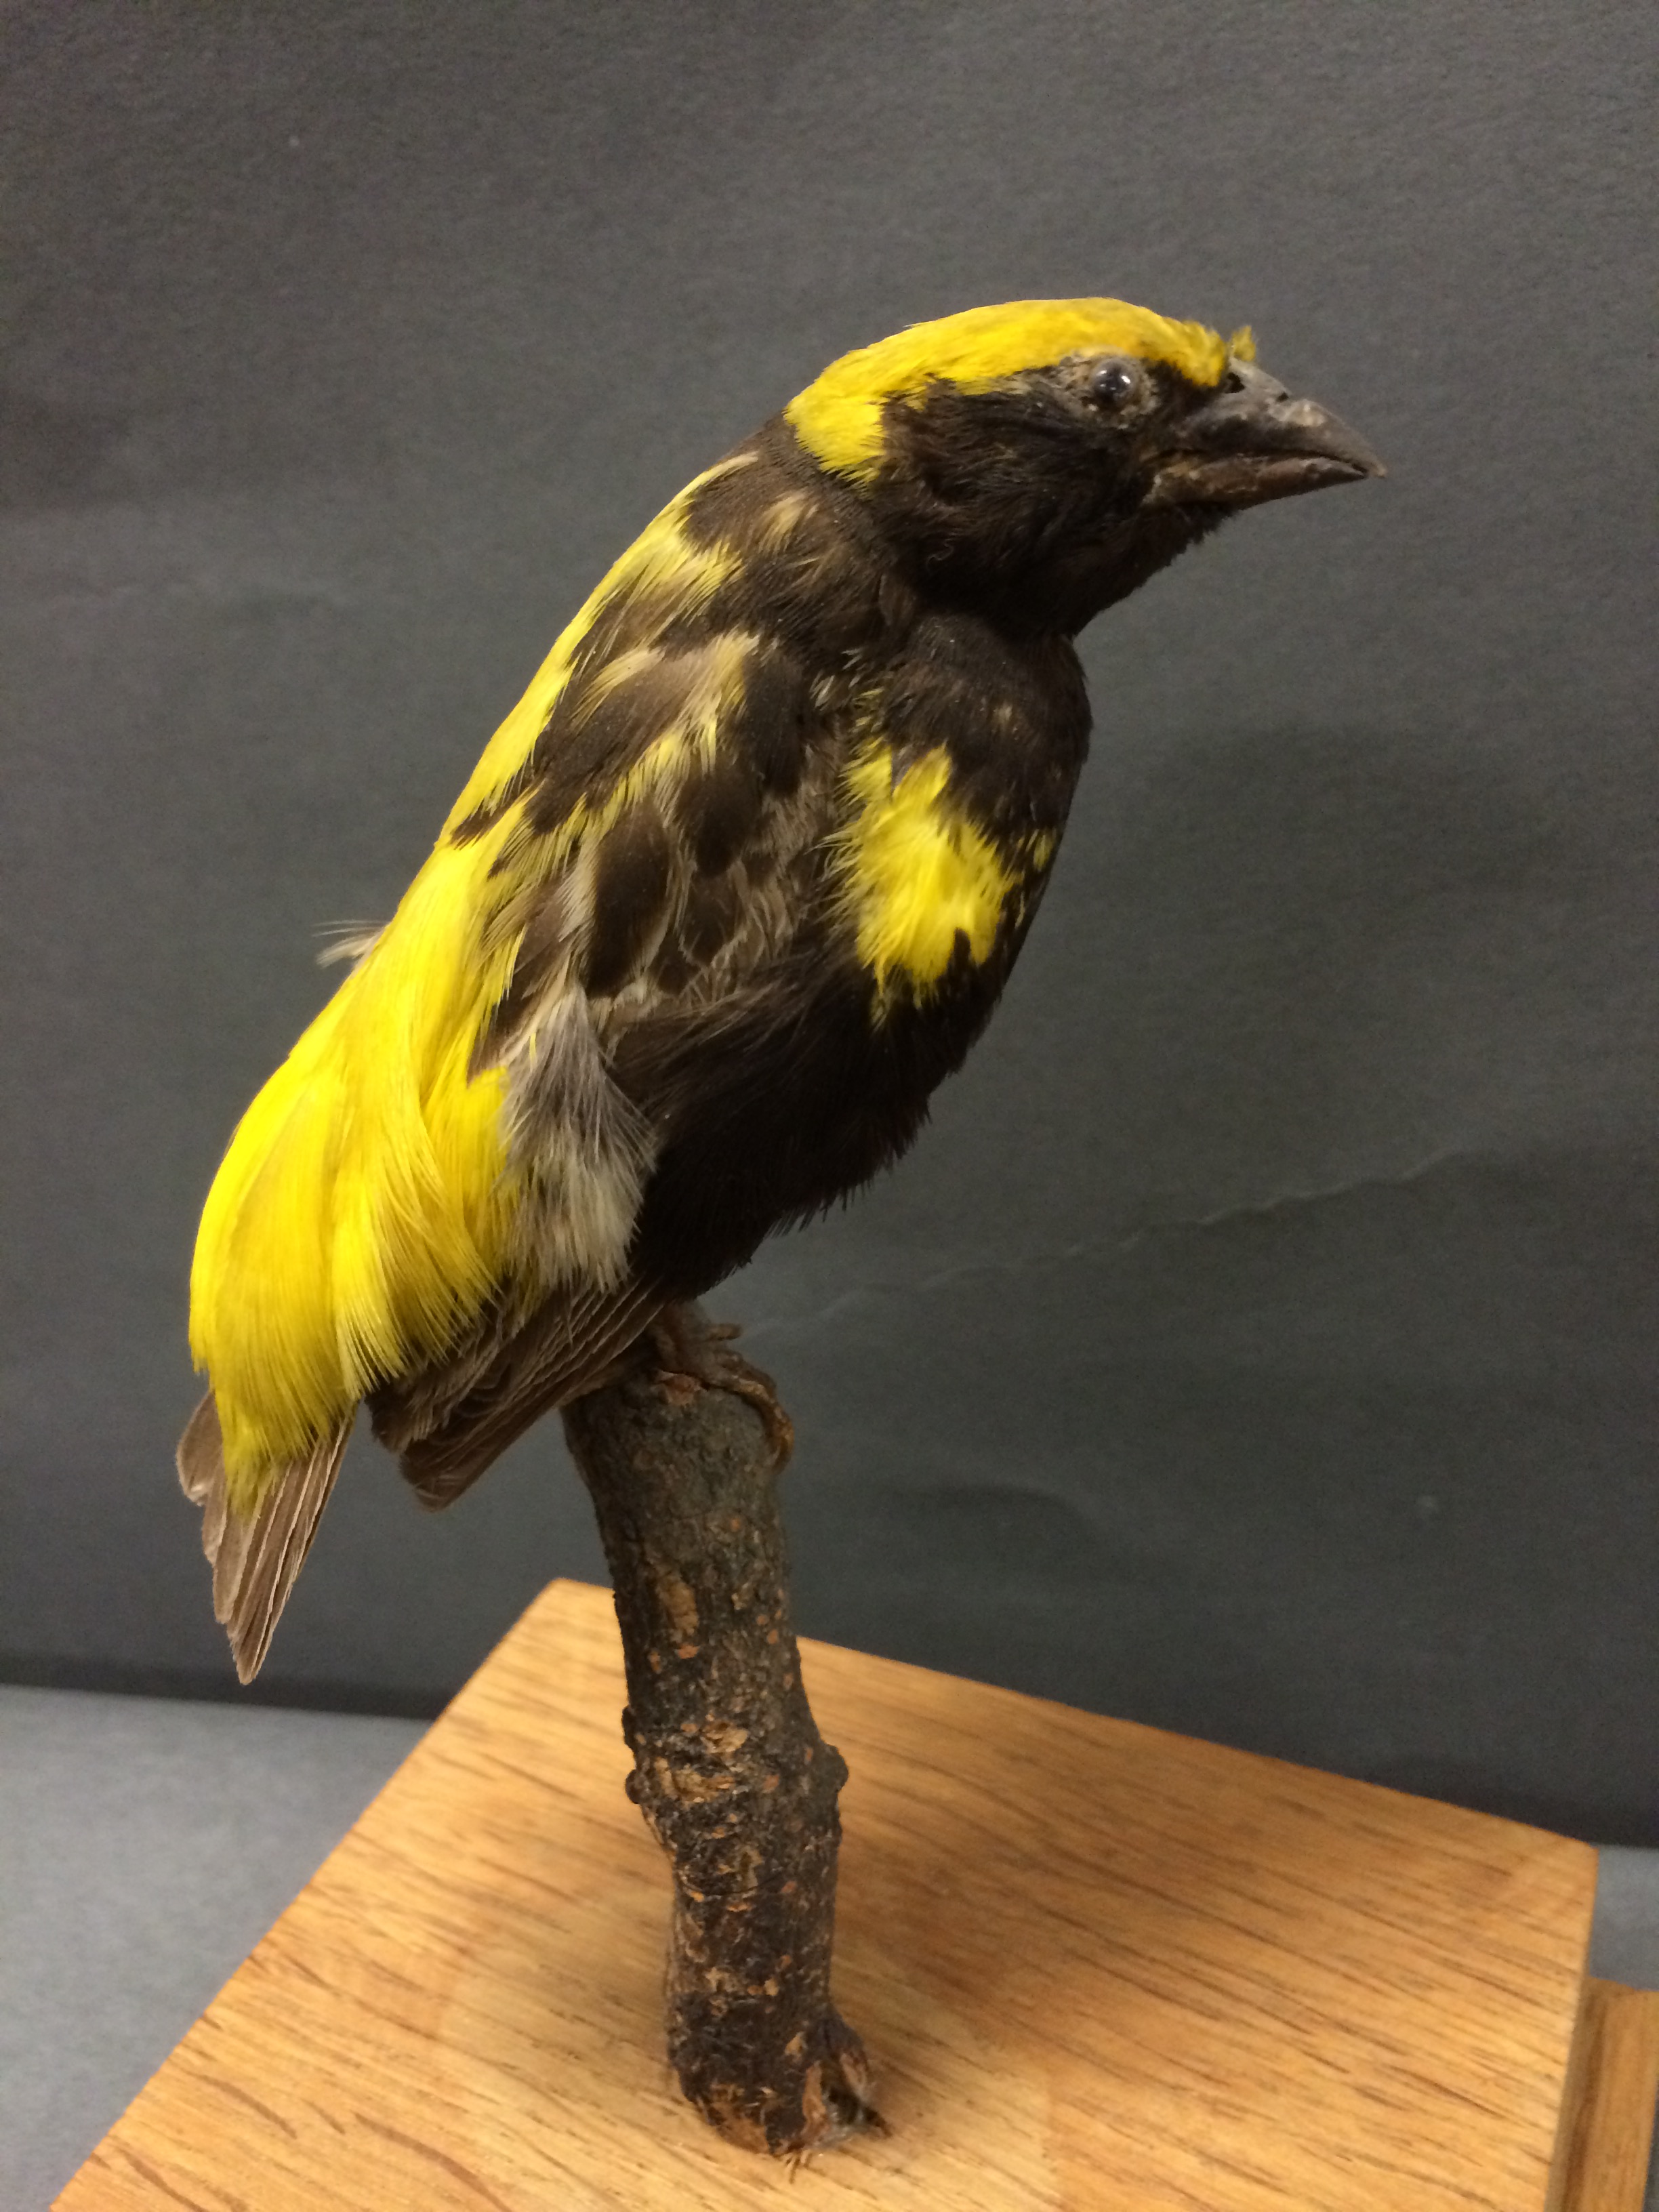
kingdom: Animalia
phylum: Chordata
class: Aves
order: Passeriformes
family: Ploceidae
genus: Euplectes
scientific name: Euplectes afer
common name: Yellow-crowned bishop
